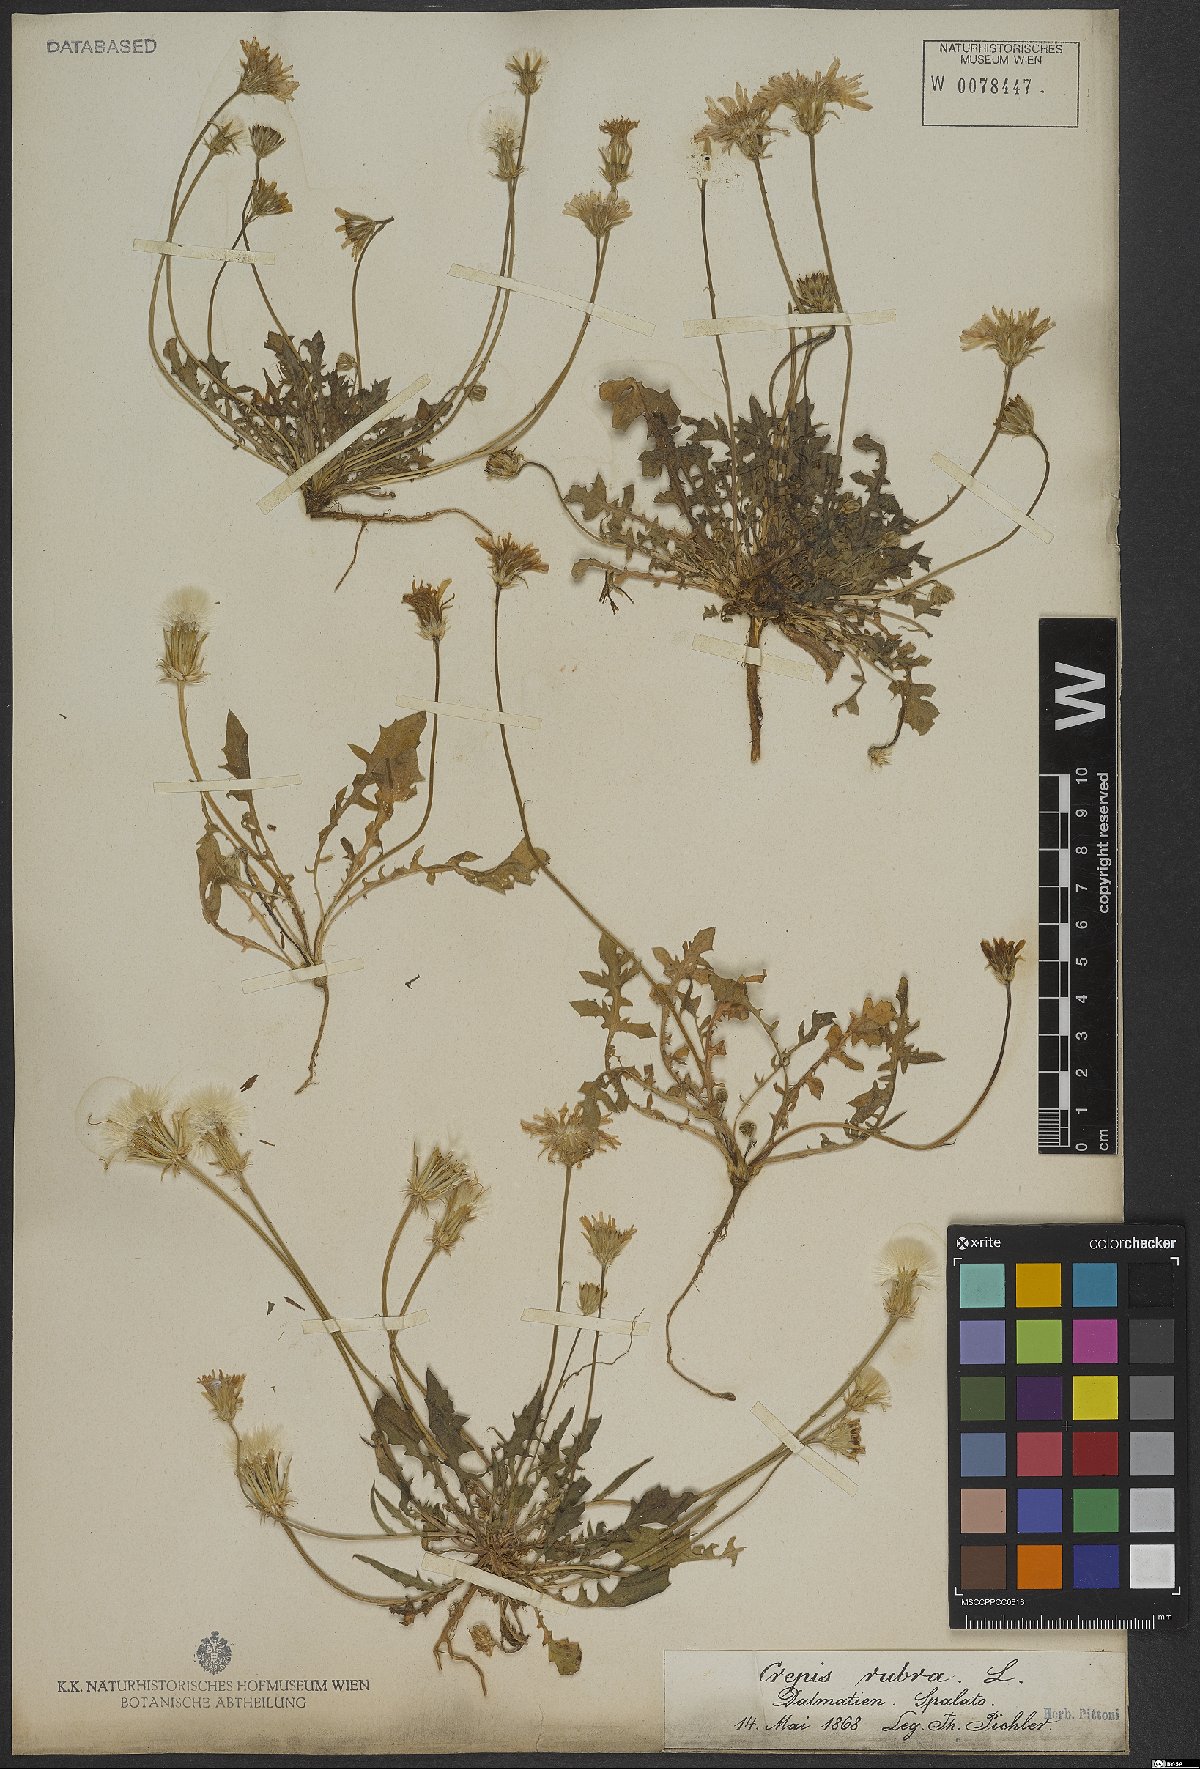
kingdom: Plantae
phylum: Tracheophyta
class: Magnoliopsida
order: Asterales
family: Asteraceae
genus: Crepis
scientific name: Crepis rubra
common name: Pink hawk's-beard
